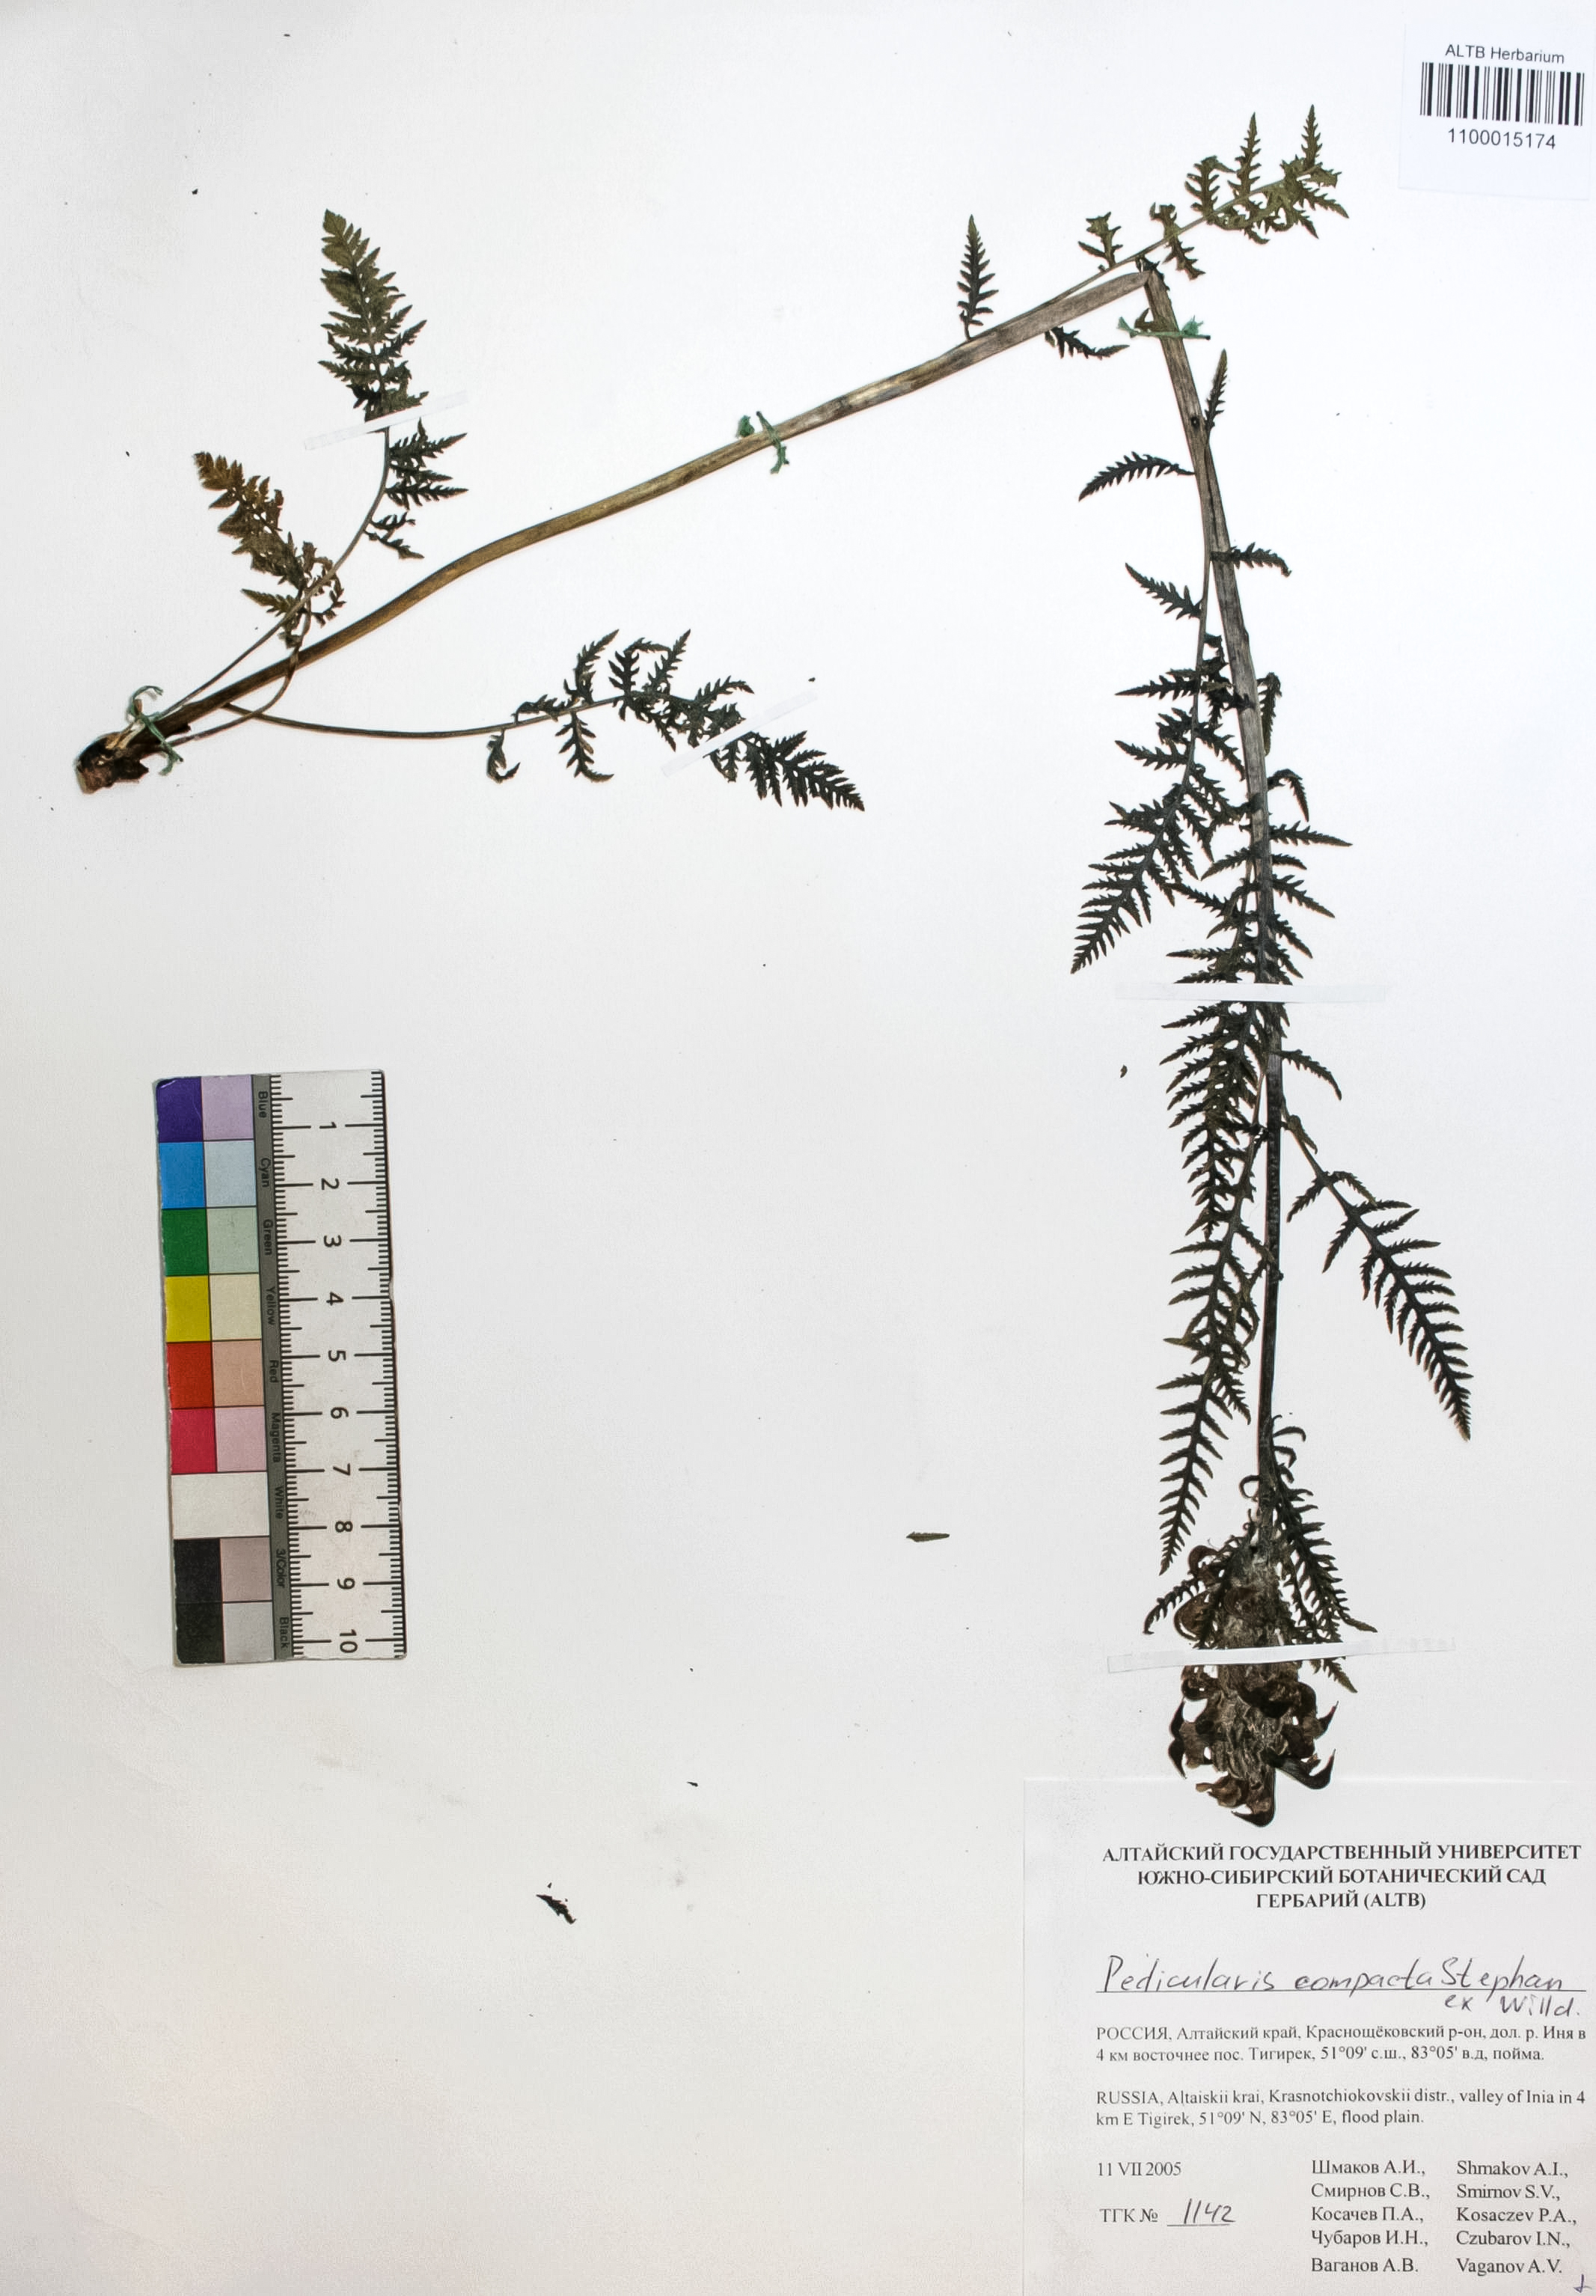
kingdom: Plantae
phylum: Tracheophyta
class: Magnoliopsida
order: Lamiales
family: Orobanchaceae
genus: Pedicularis
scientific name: Pedicularis compacta
